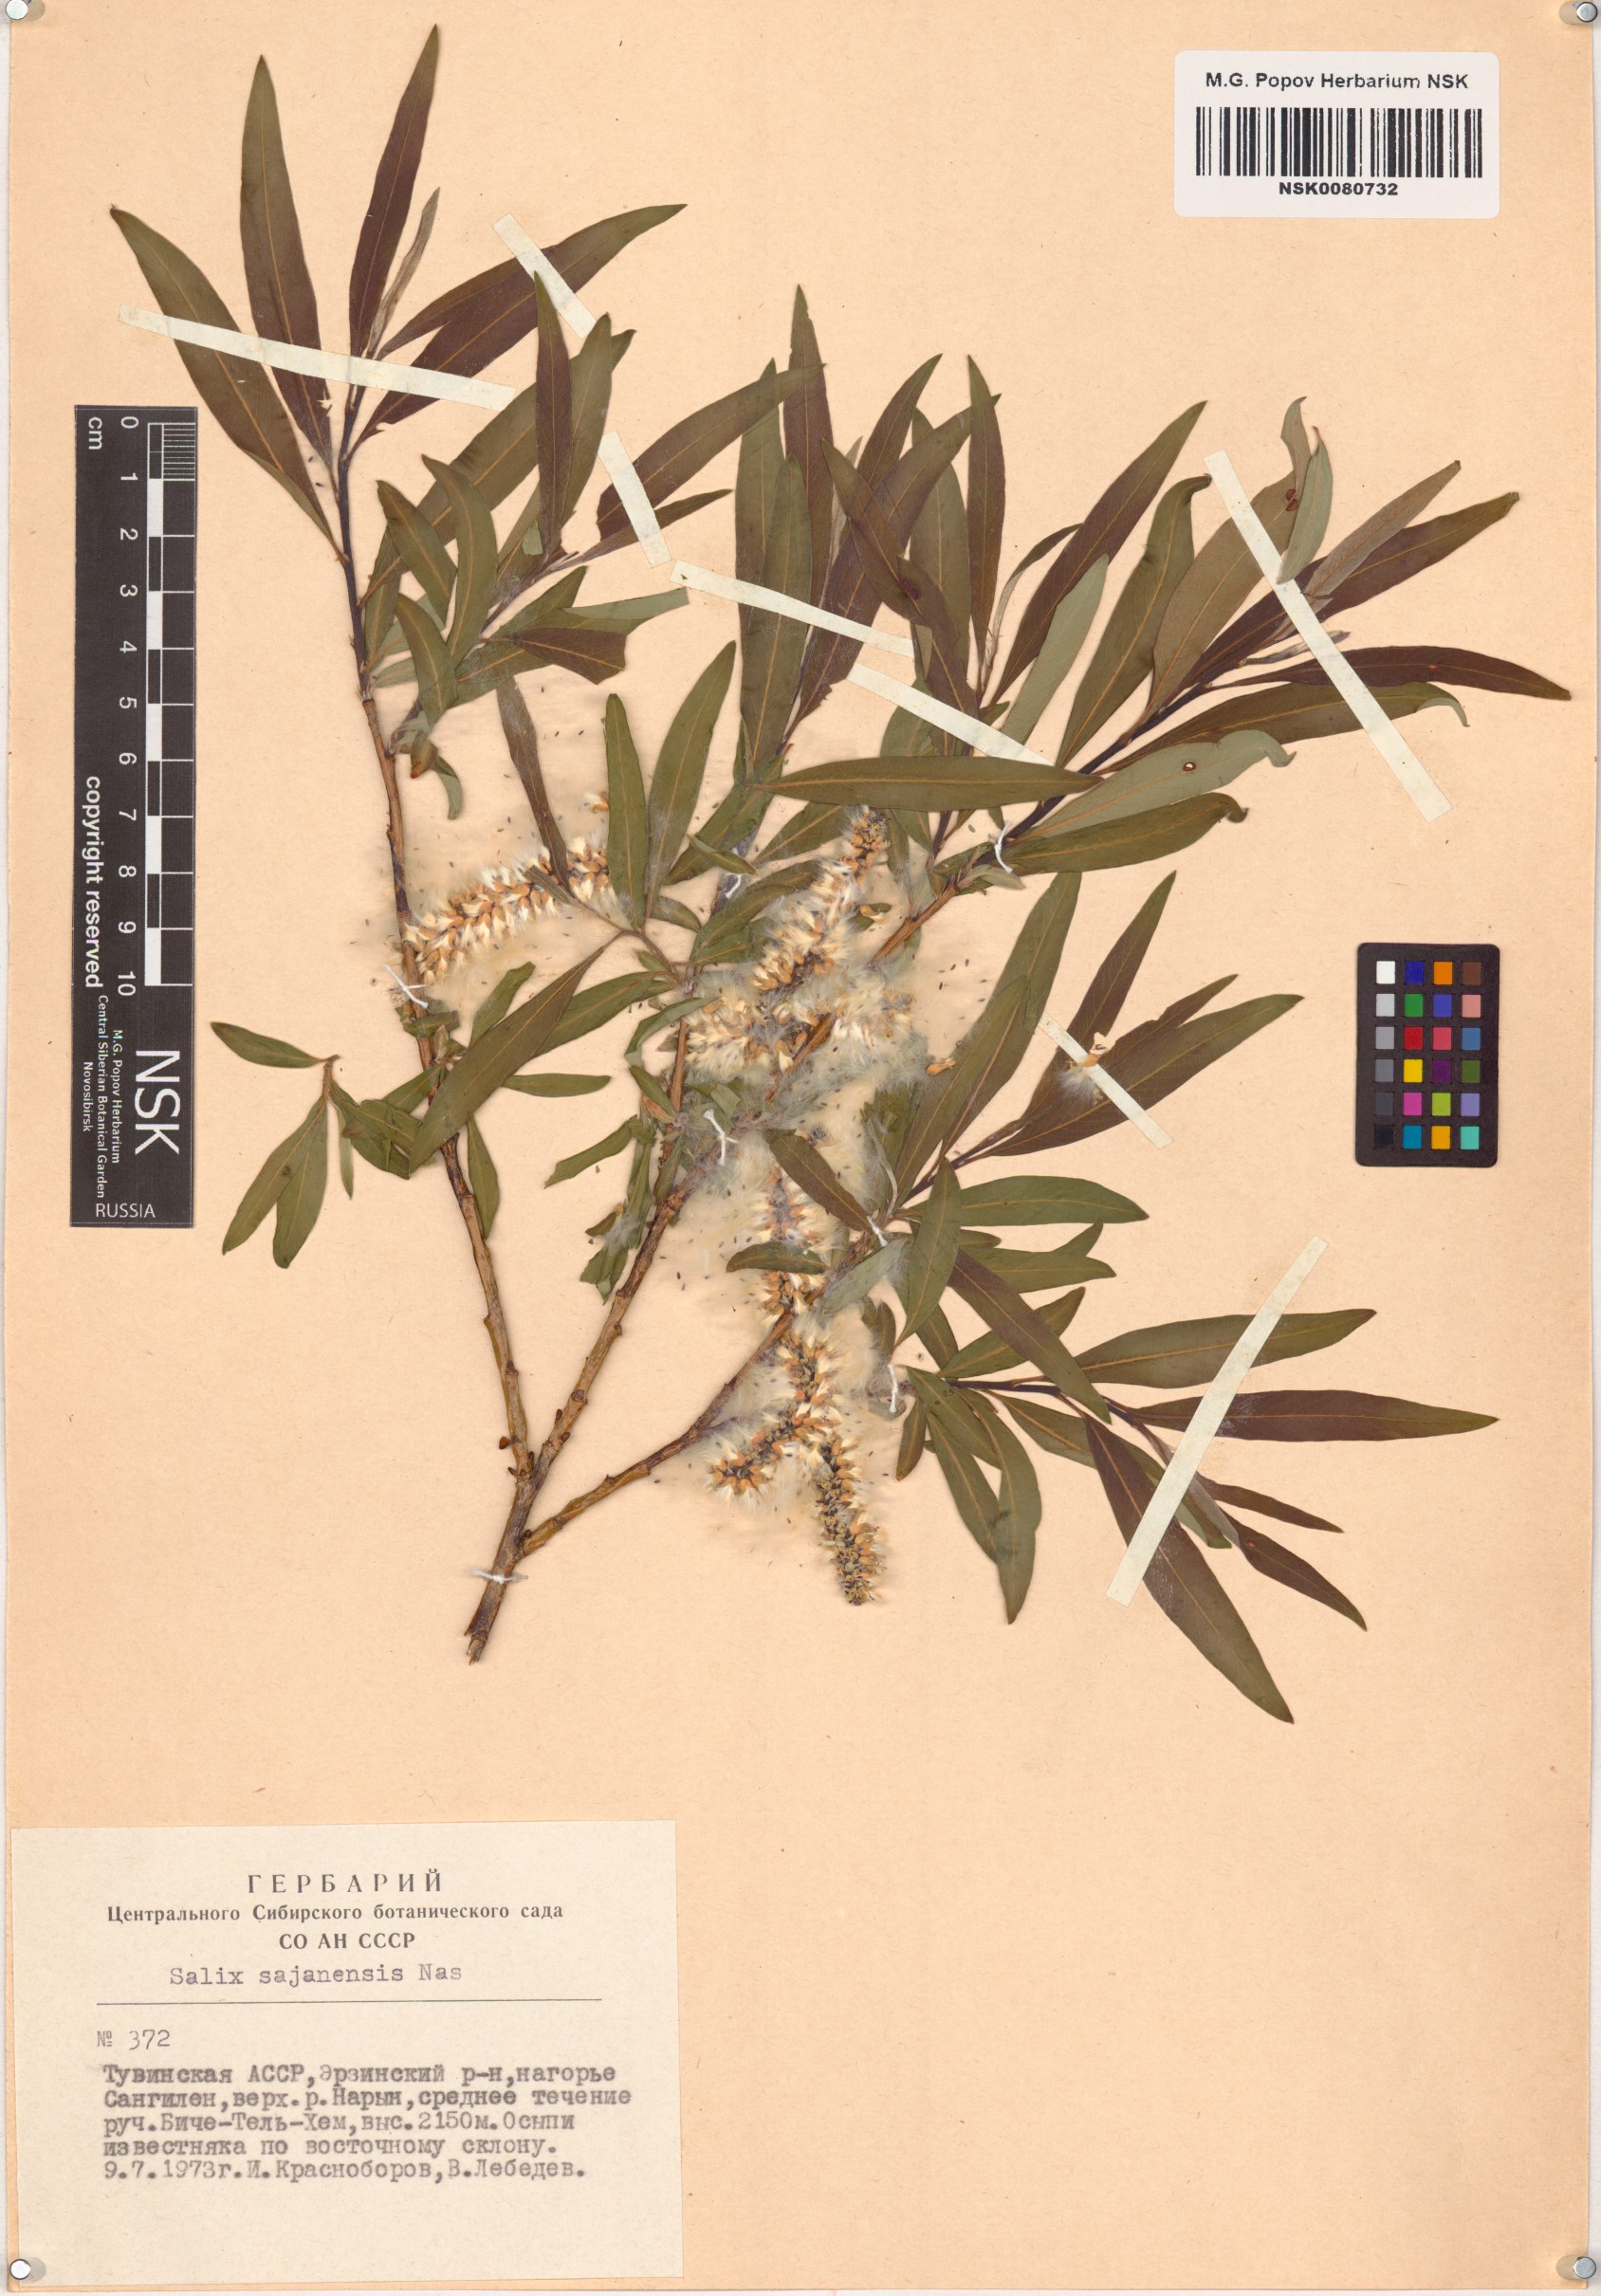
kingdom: Plantae
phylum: Tracheophyta
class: Magnoliopsida
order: Malpighiales
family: Salicaceae
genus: Salix
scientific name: Salix sajanensis
